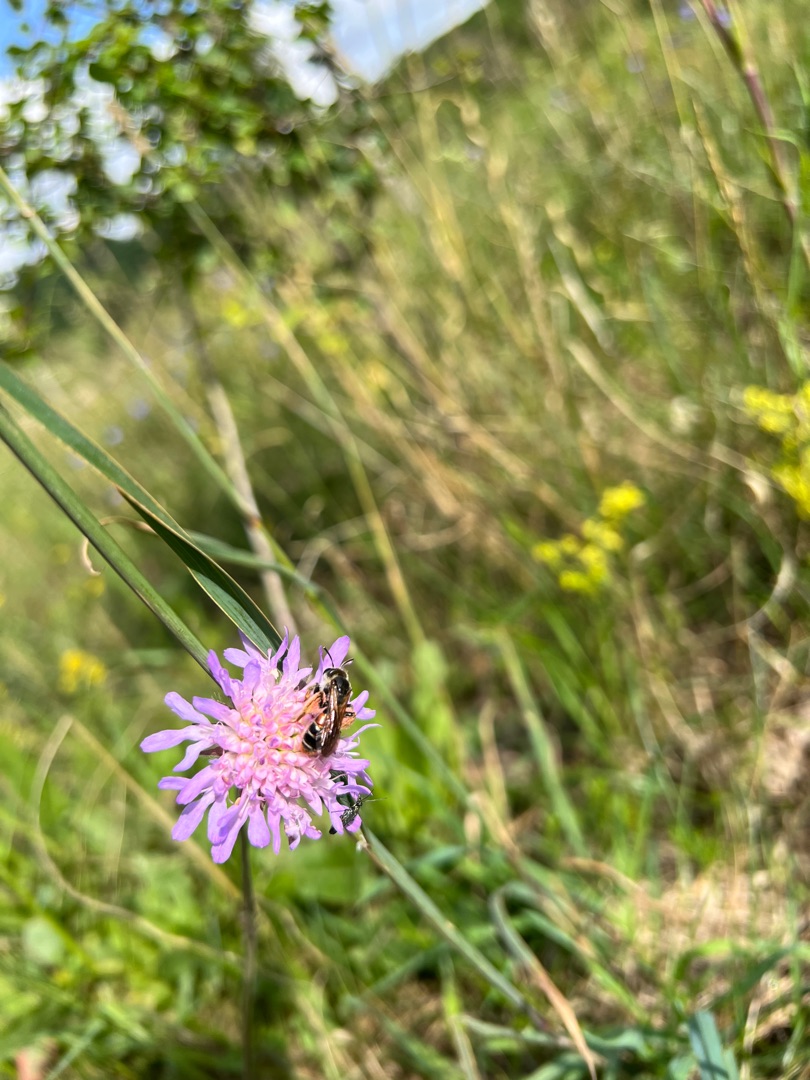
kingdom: Plantae
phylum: Tracheophyta
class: Magnoliopsida
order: Dipsacales
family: Caprifoliaceae
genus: Knautia
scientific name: Knautia arvensis
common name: Blåhat
